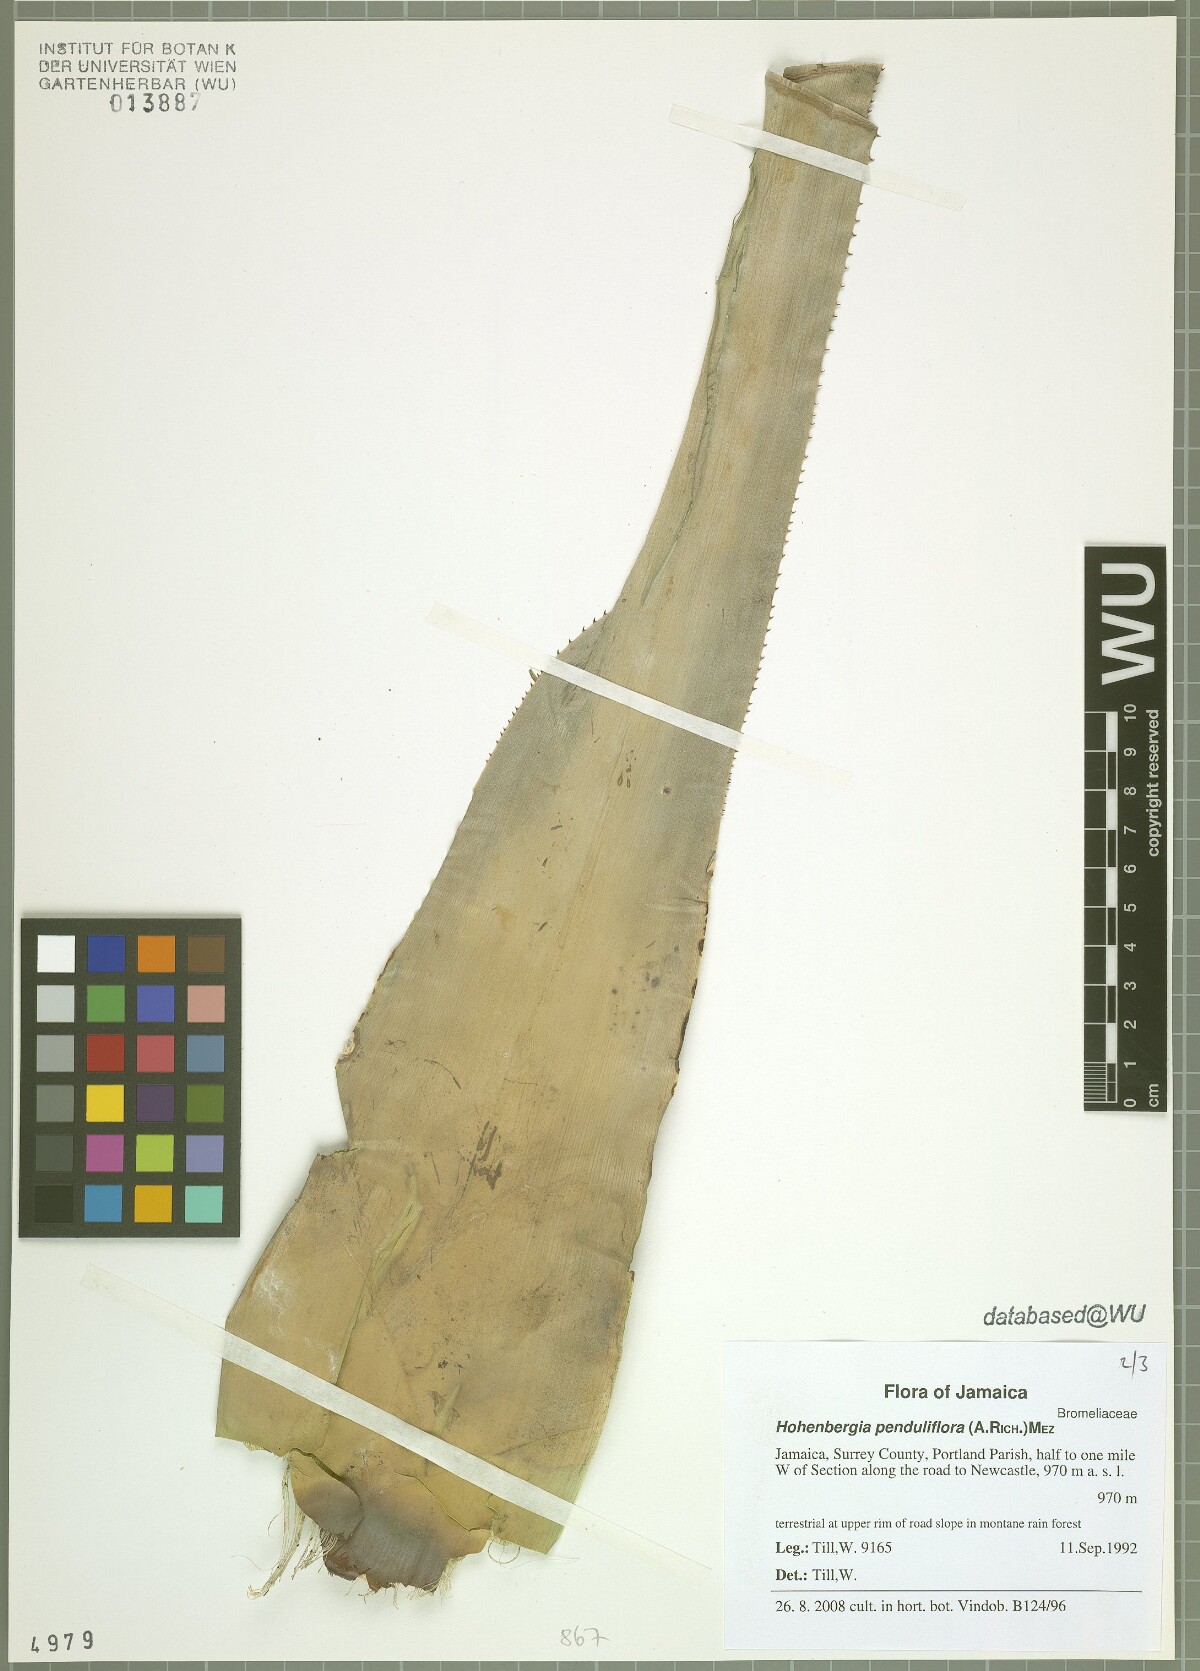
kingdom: Plantae
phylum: Tracheophyta
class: Liliopsida
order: Poales
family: Bromeliaceae
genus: Wittmackia
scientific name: Wittmackia penduliflora
